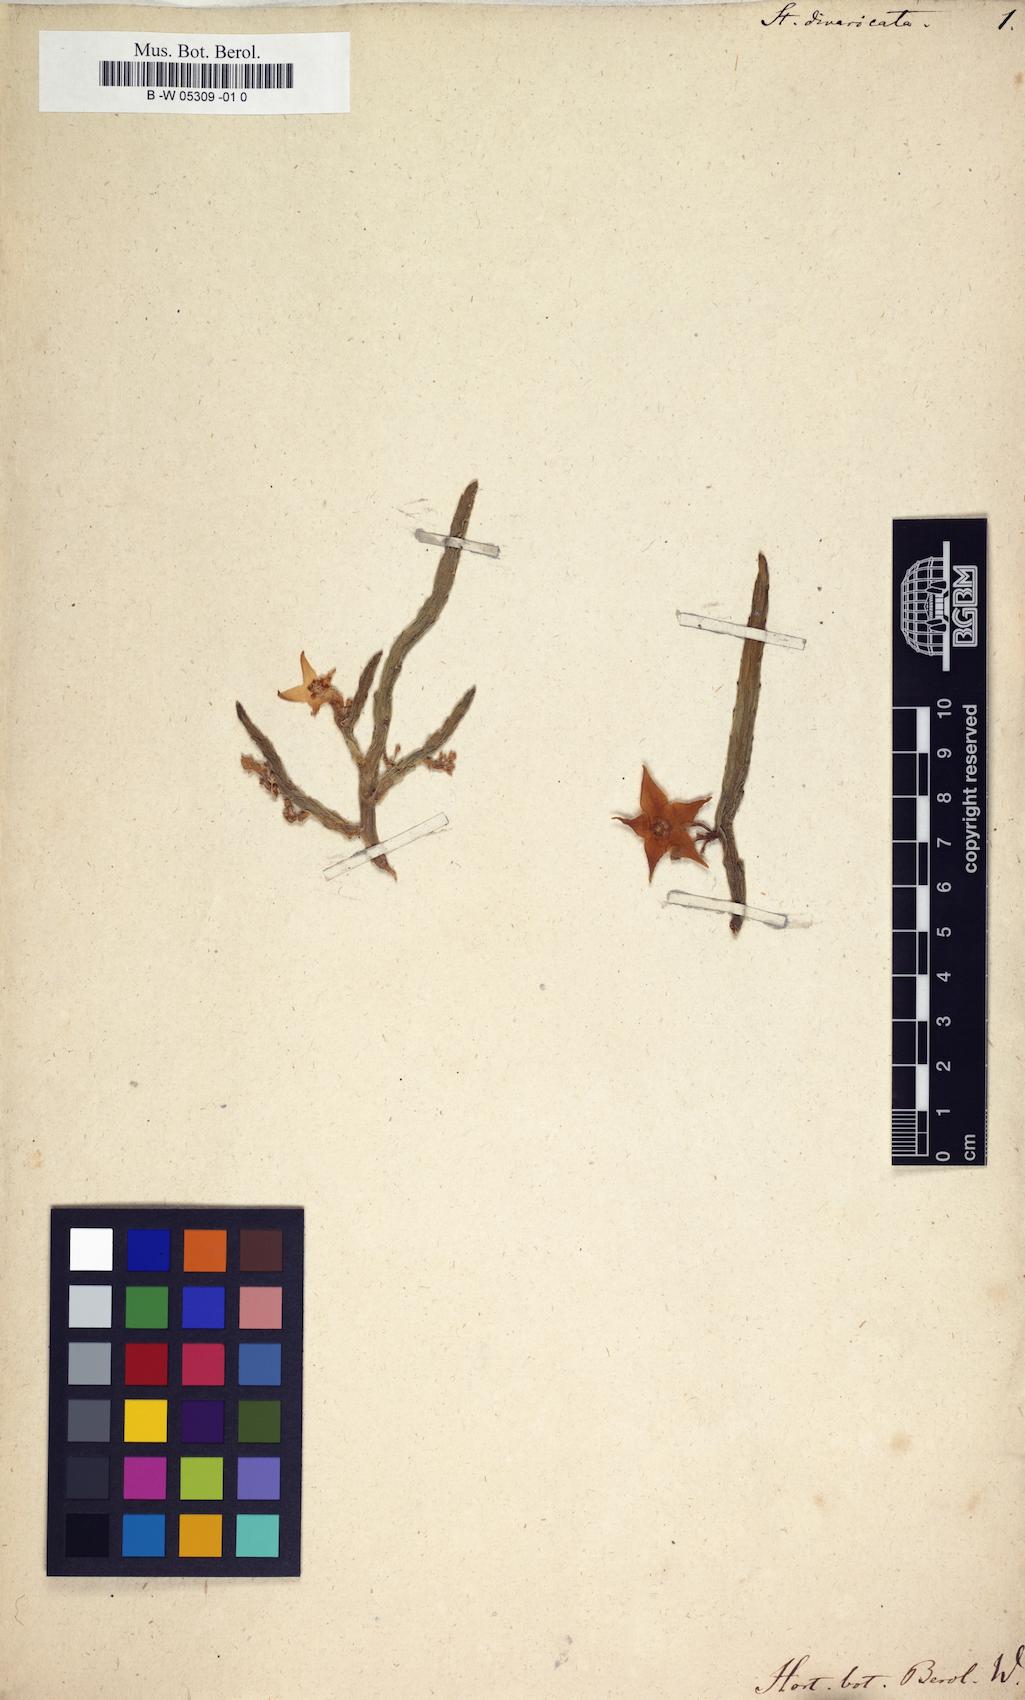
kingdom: Plantae
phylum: Tracheophyta
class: Magnoliopsida
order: Gentianales
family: Apocynaceae
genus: Ceropegia
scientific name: Ceropegia divaricata
